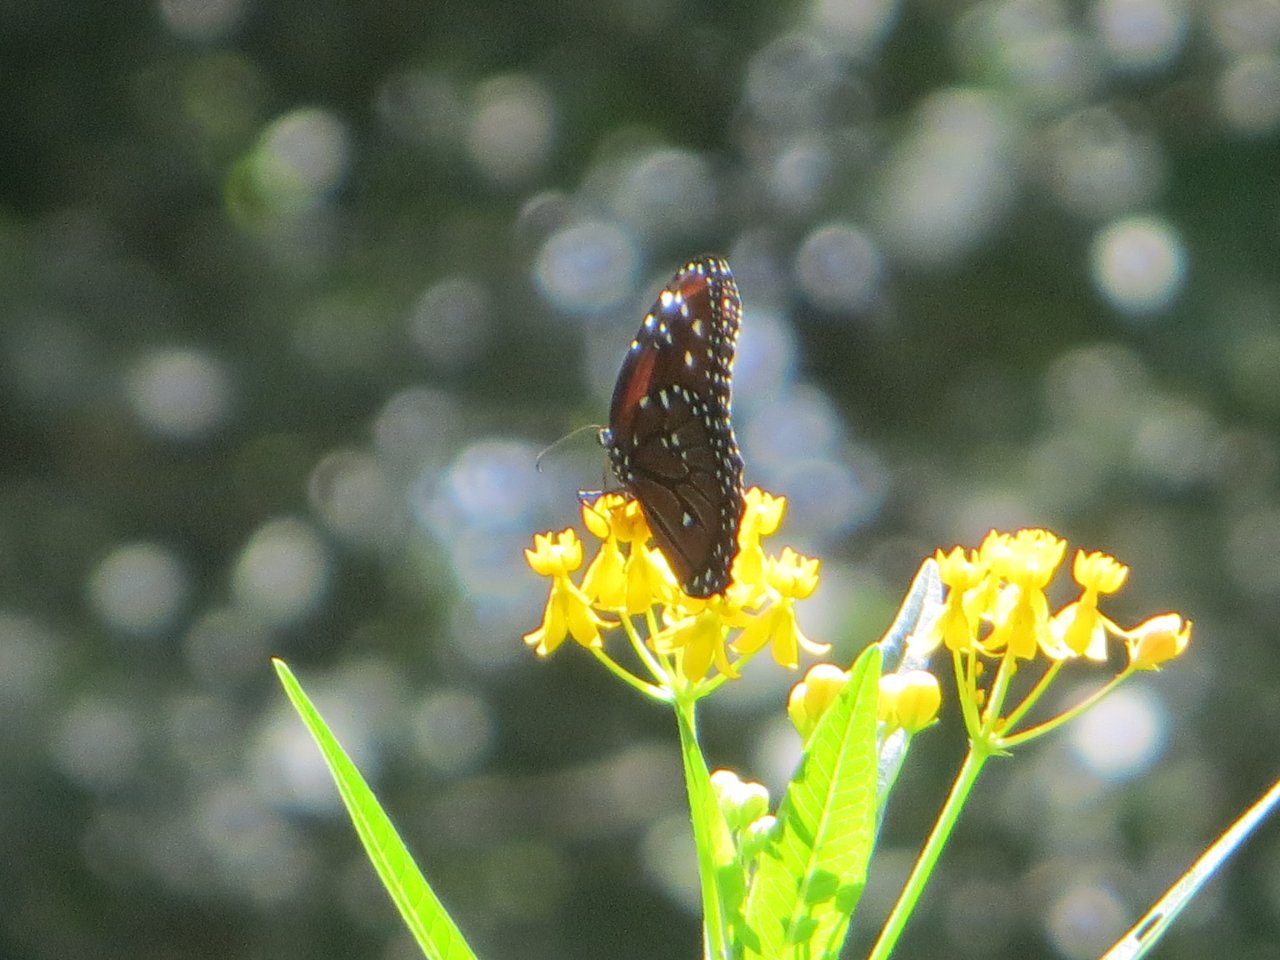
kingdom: Animalia
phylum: Arthropoda
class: Insecta
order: Lepidoptera
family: Nymphalidae
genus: Danaus
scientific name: Danaus gilippus
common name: Queen
